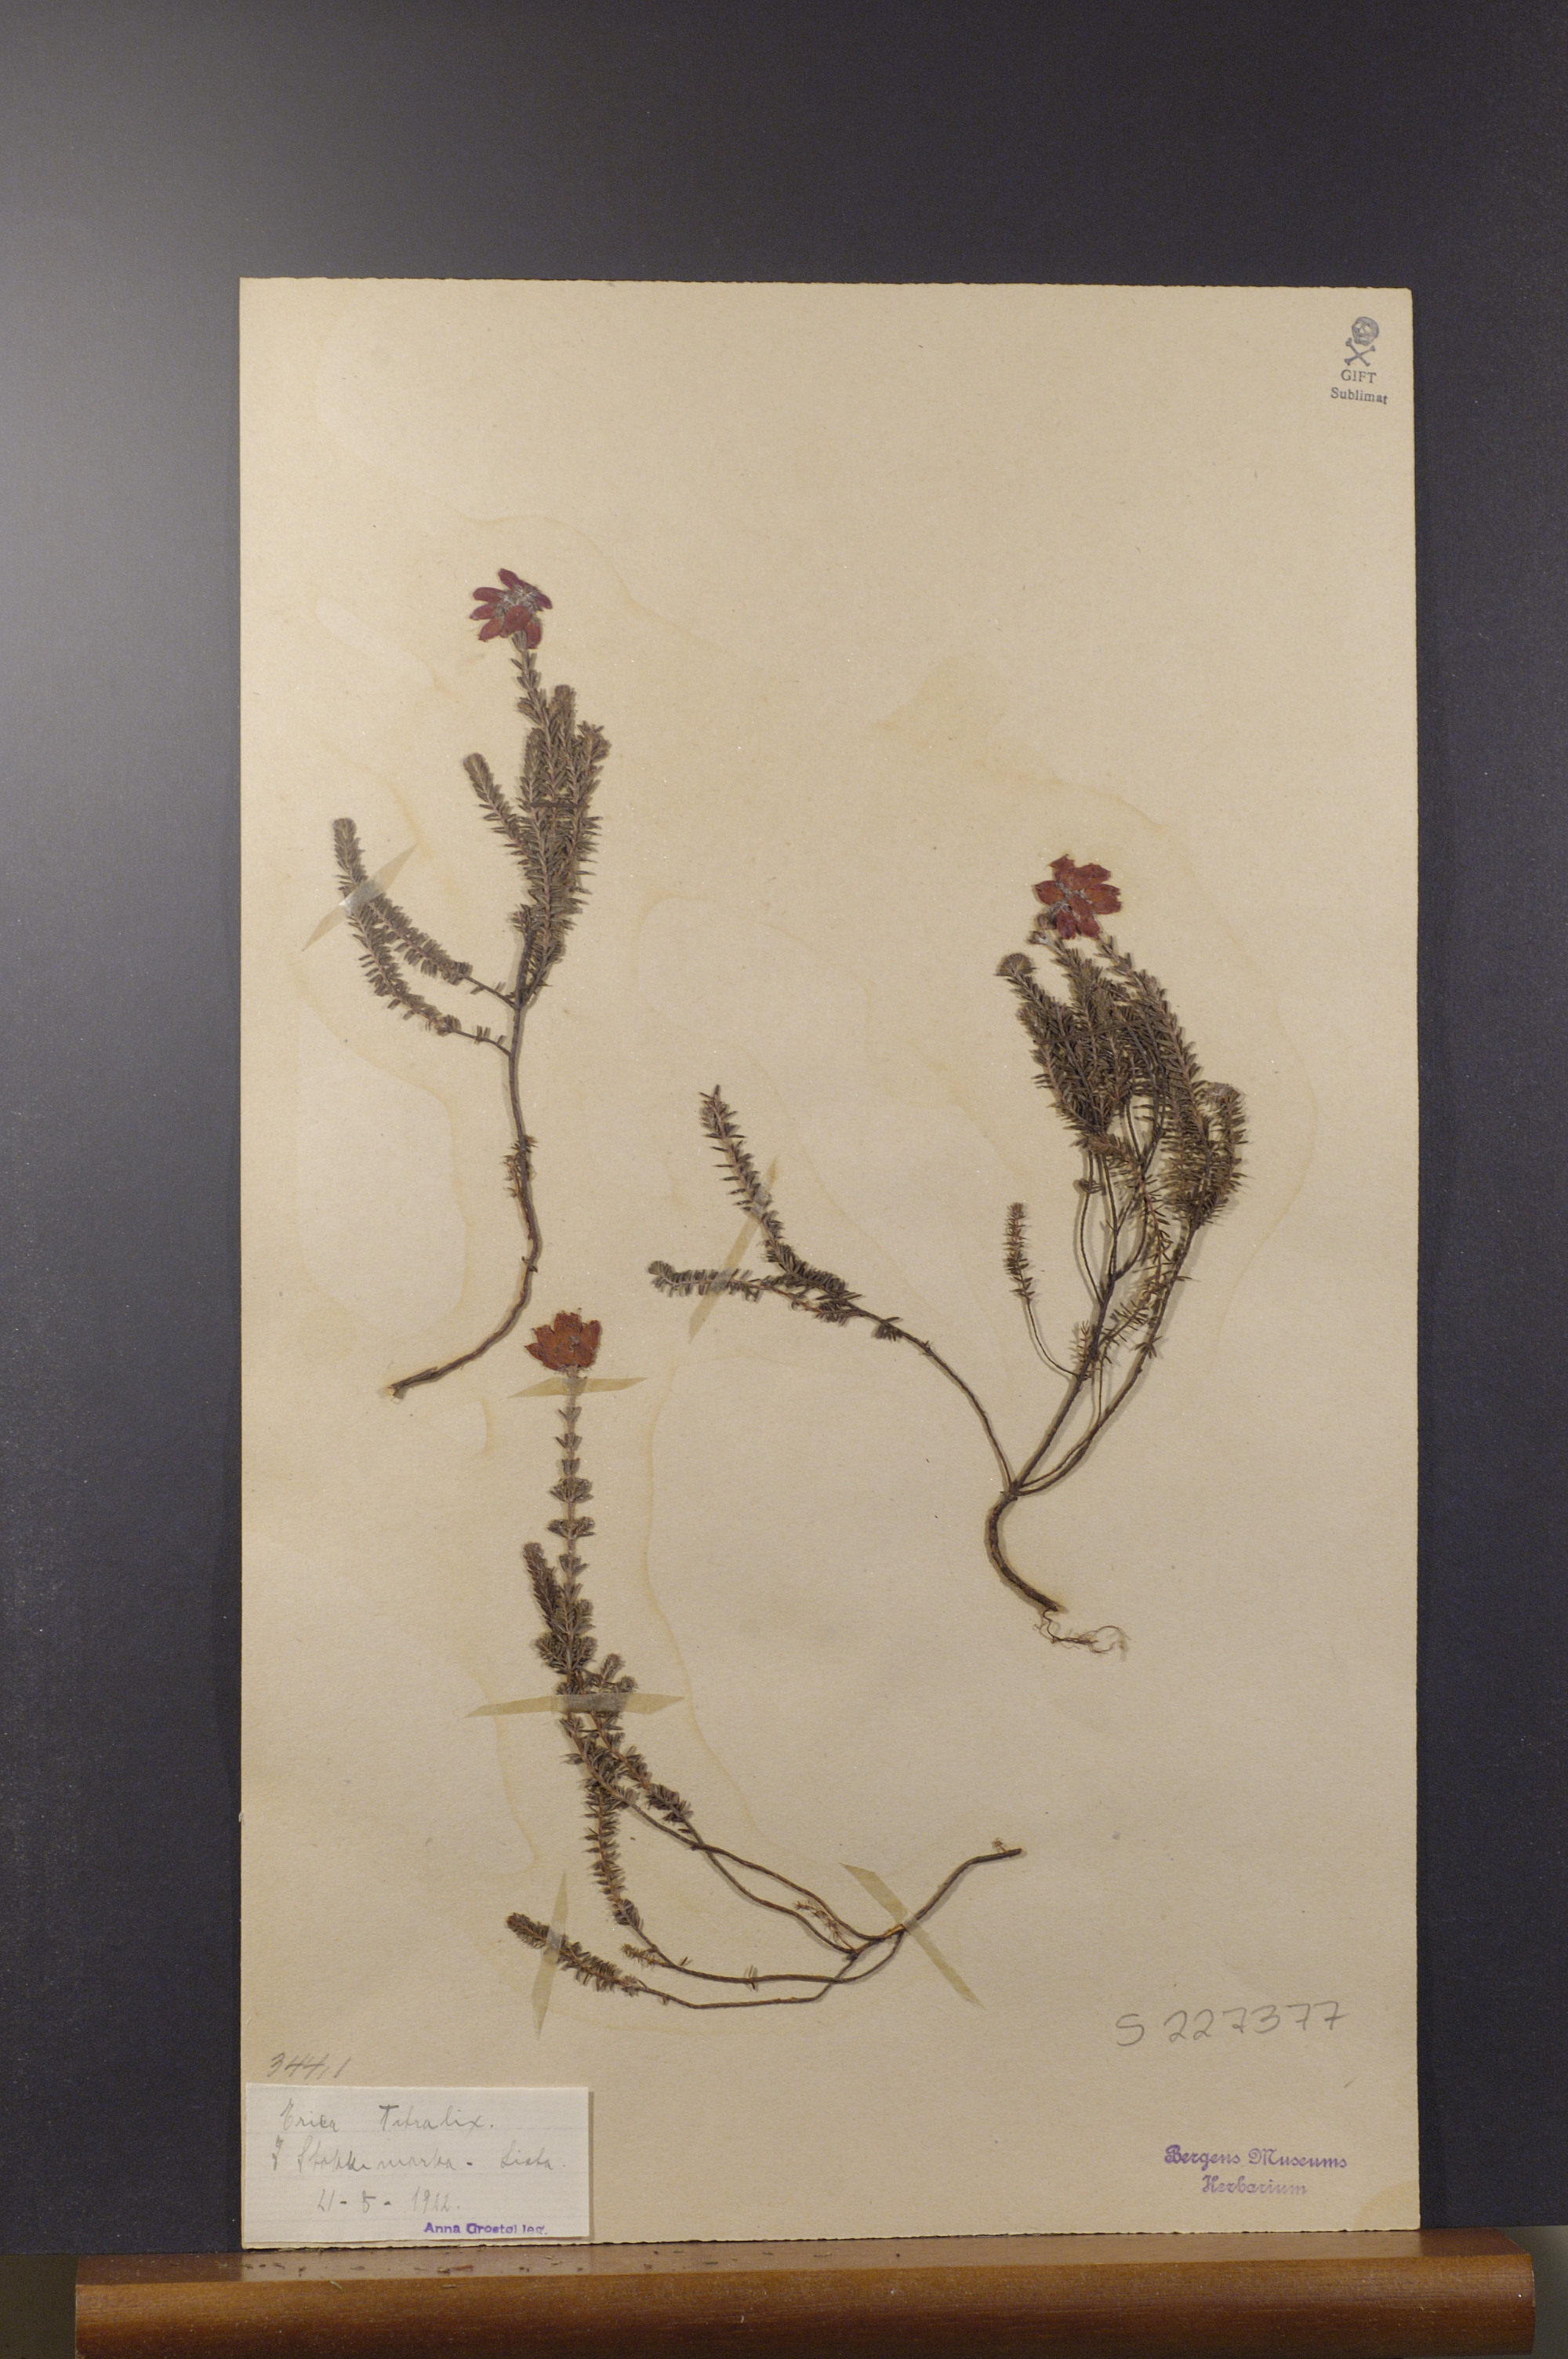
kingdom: Plantae
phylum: Tracheophyta
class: Magnoliopsida
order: Ericales
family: Ericaceae
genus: Erica
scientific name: Erica tetralix
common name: Cross-leaved heath
